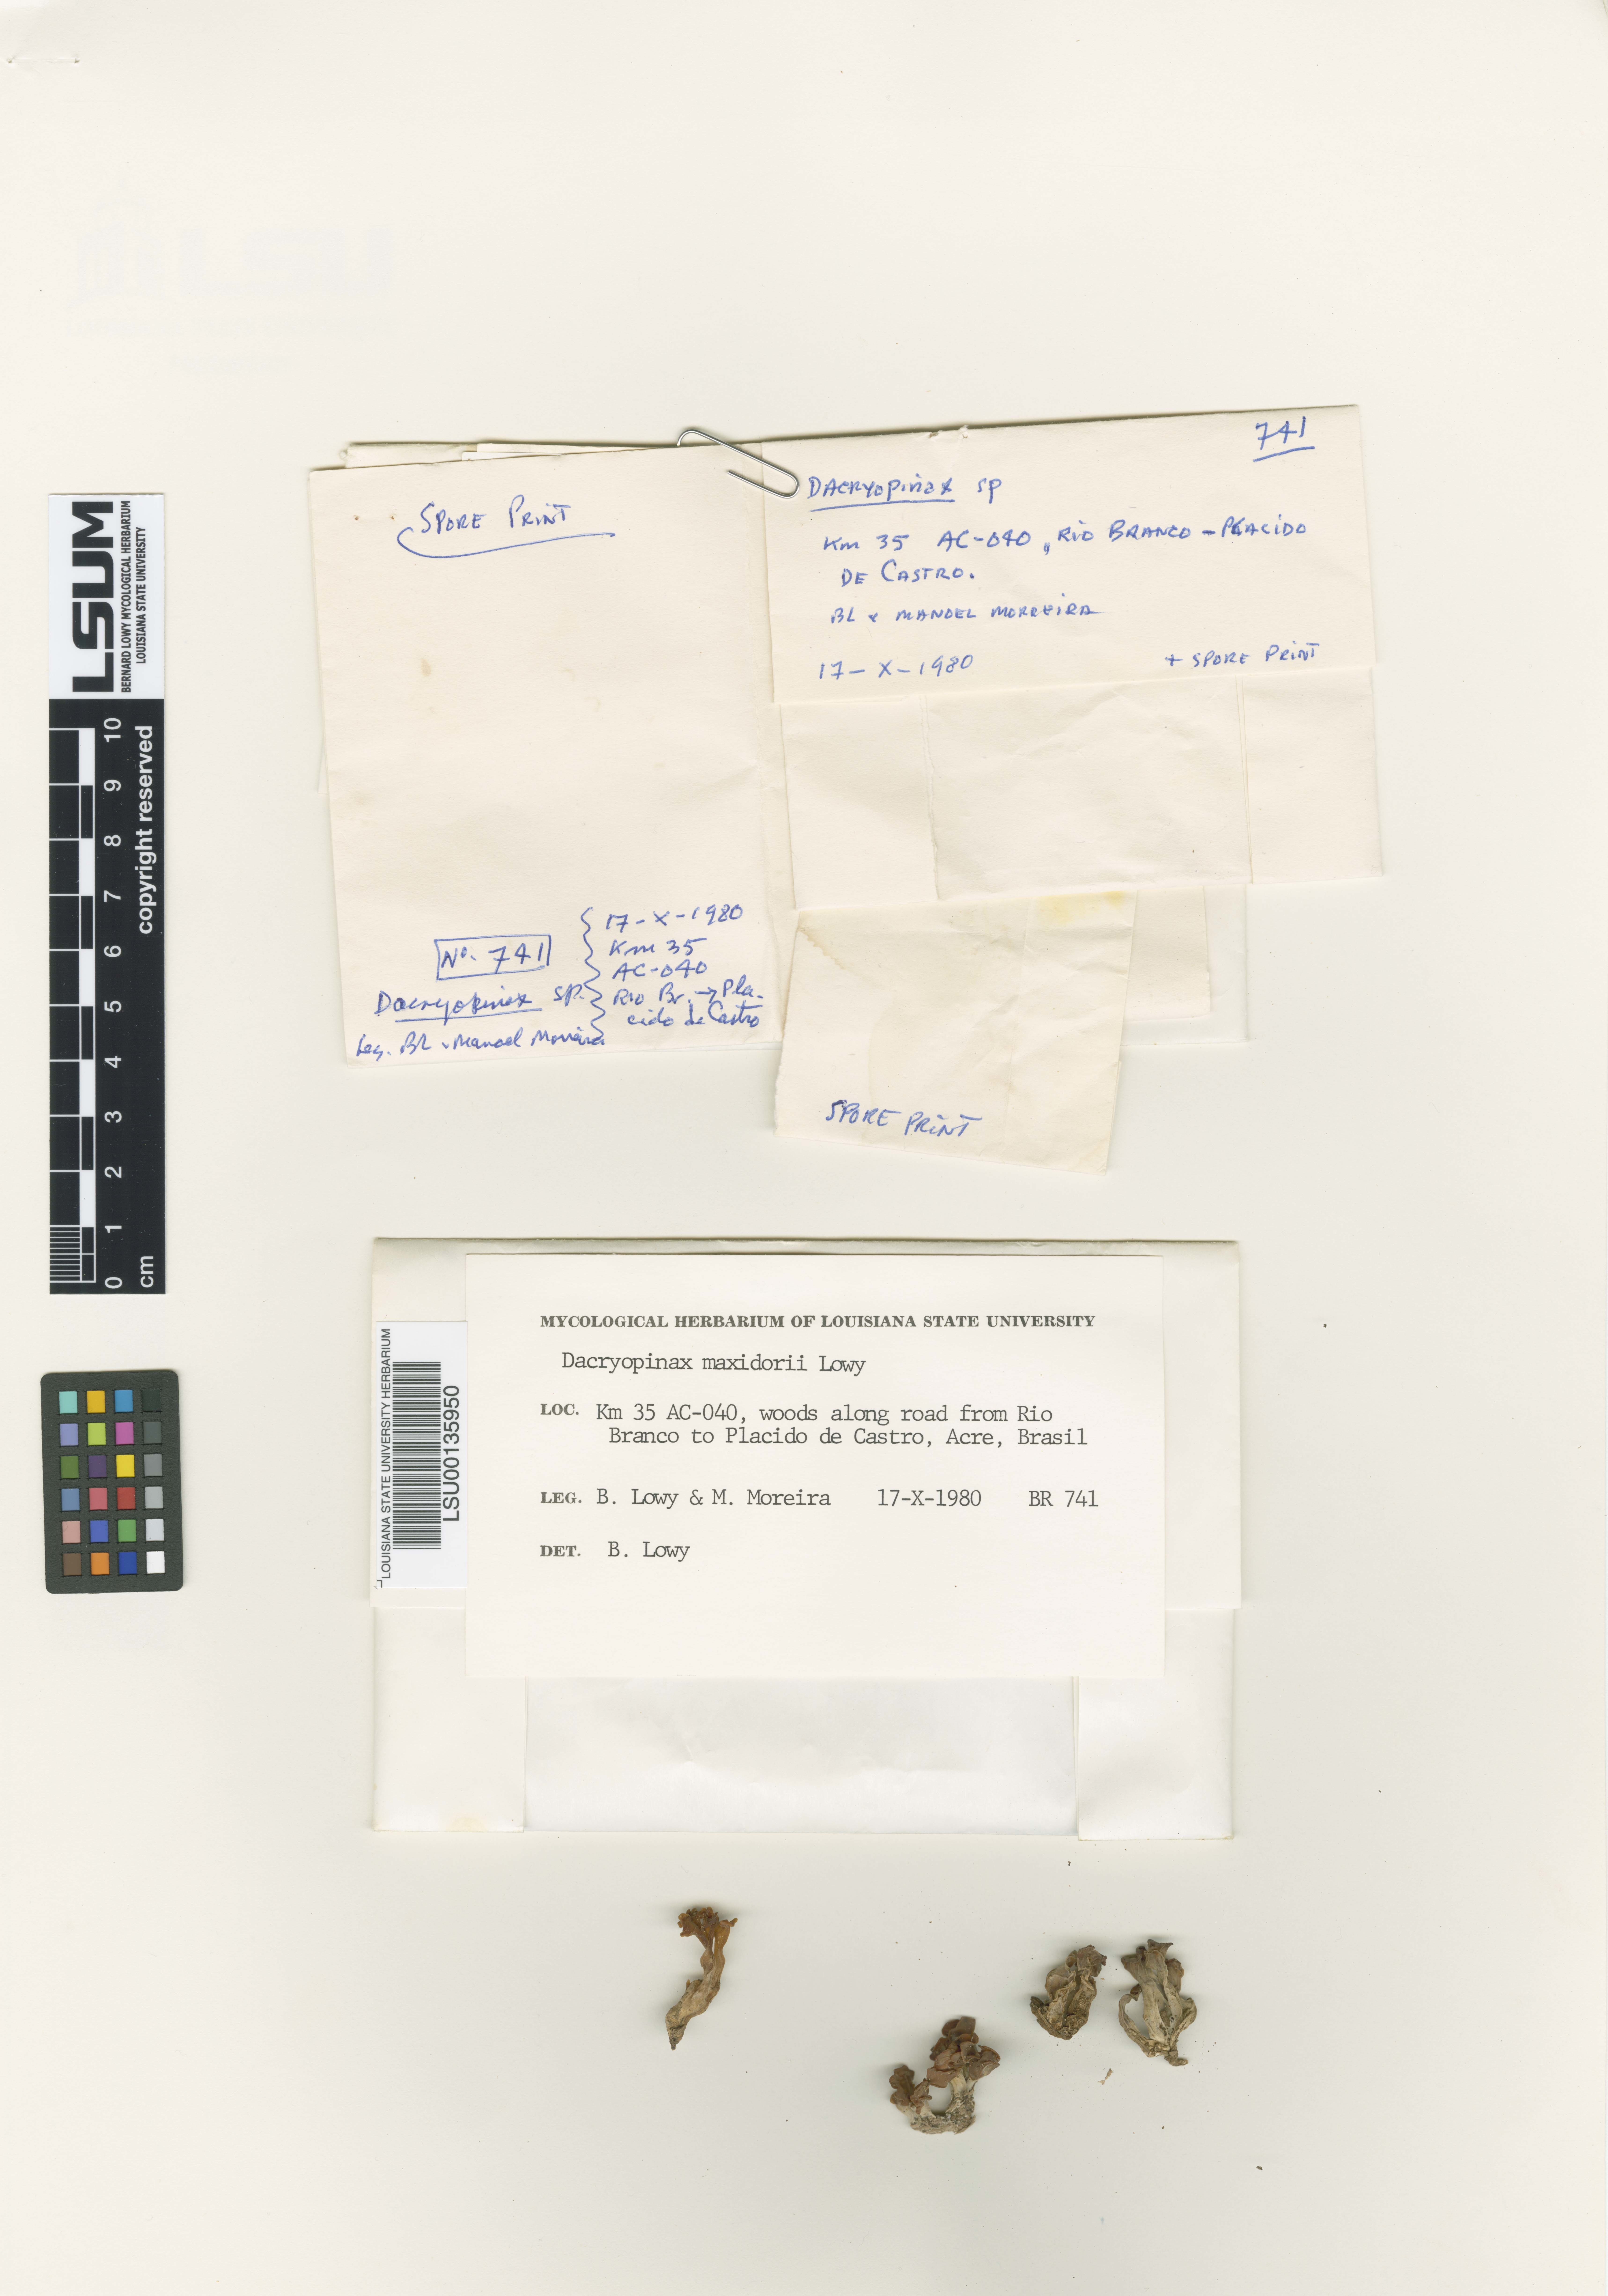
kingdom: Fungi
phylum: Basidiomycota
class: Dacrymycetes
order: Dacrymycetales
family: Dacrymycetaceae
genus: Dacrymyces
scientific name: Dacrymyces maxidorii
